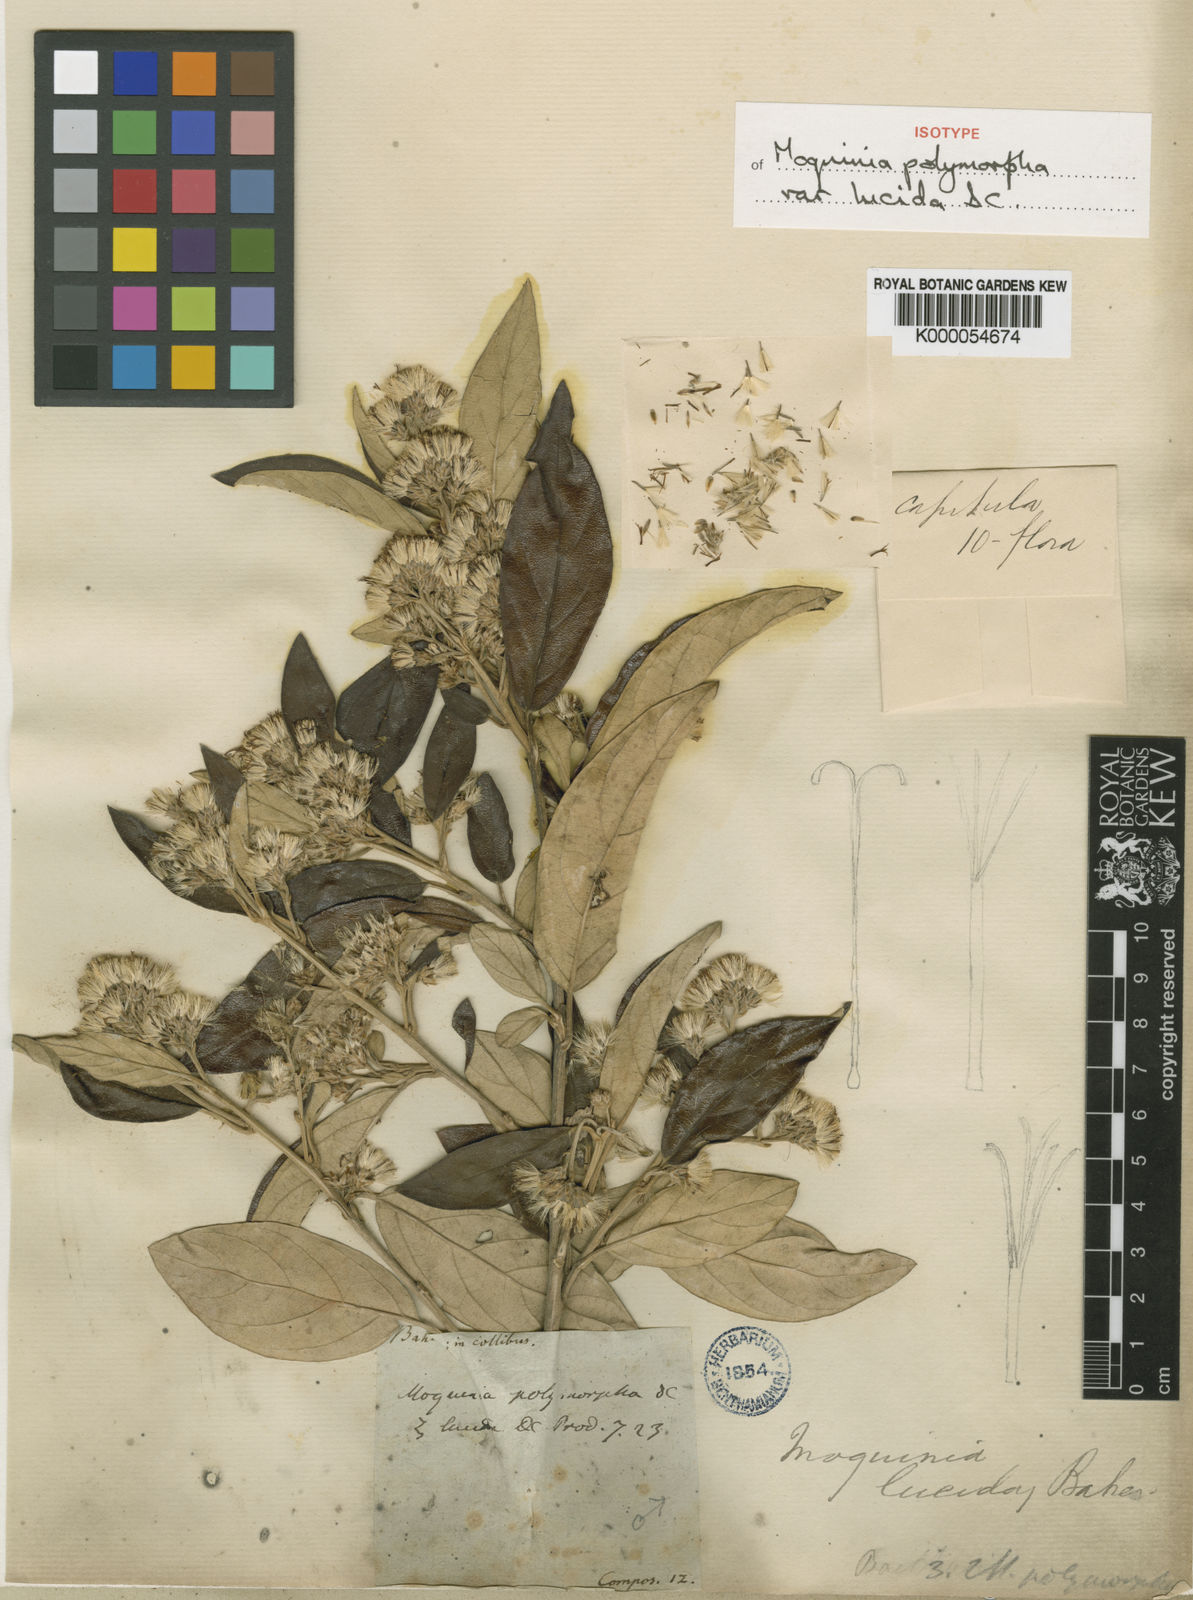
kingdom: Plantae
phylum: Tracheophyta
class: Magnoliopsida
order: Asterales
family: Asteraceae
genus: Moquiniastrum
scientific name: Moquiniastrum oligocephalum
